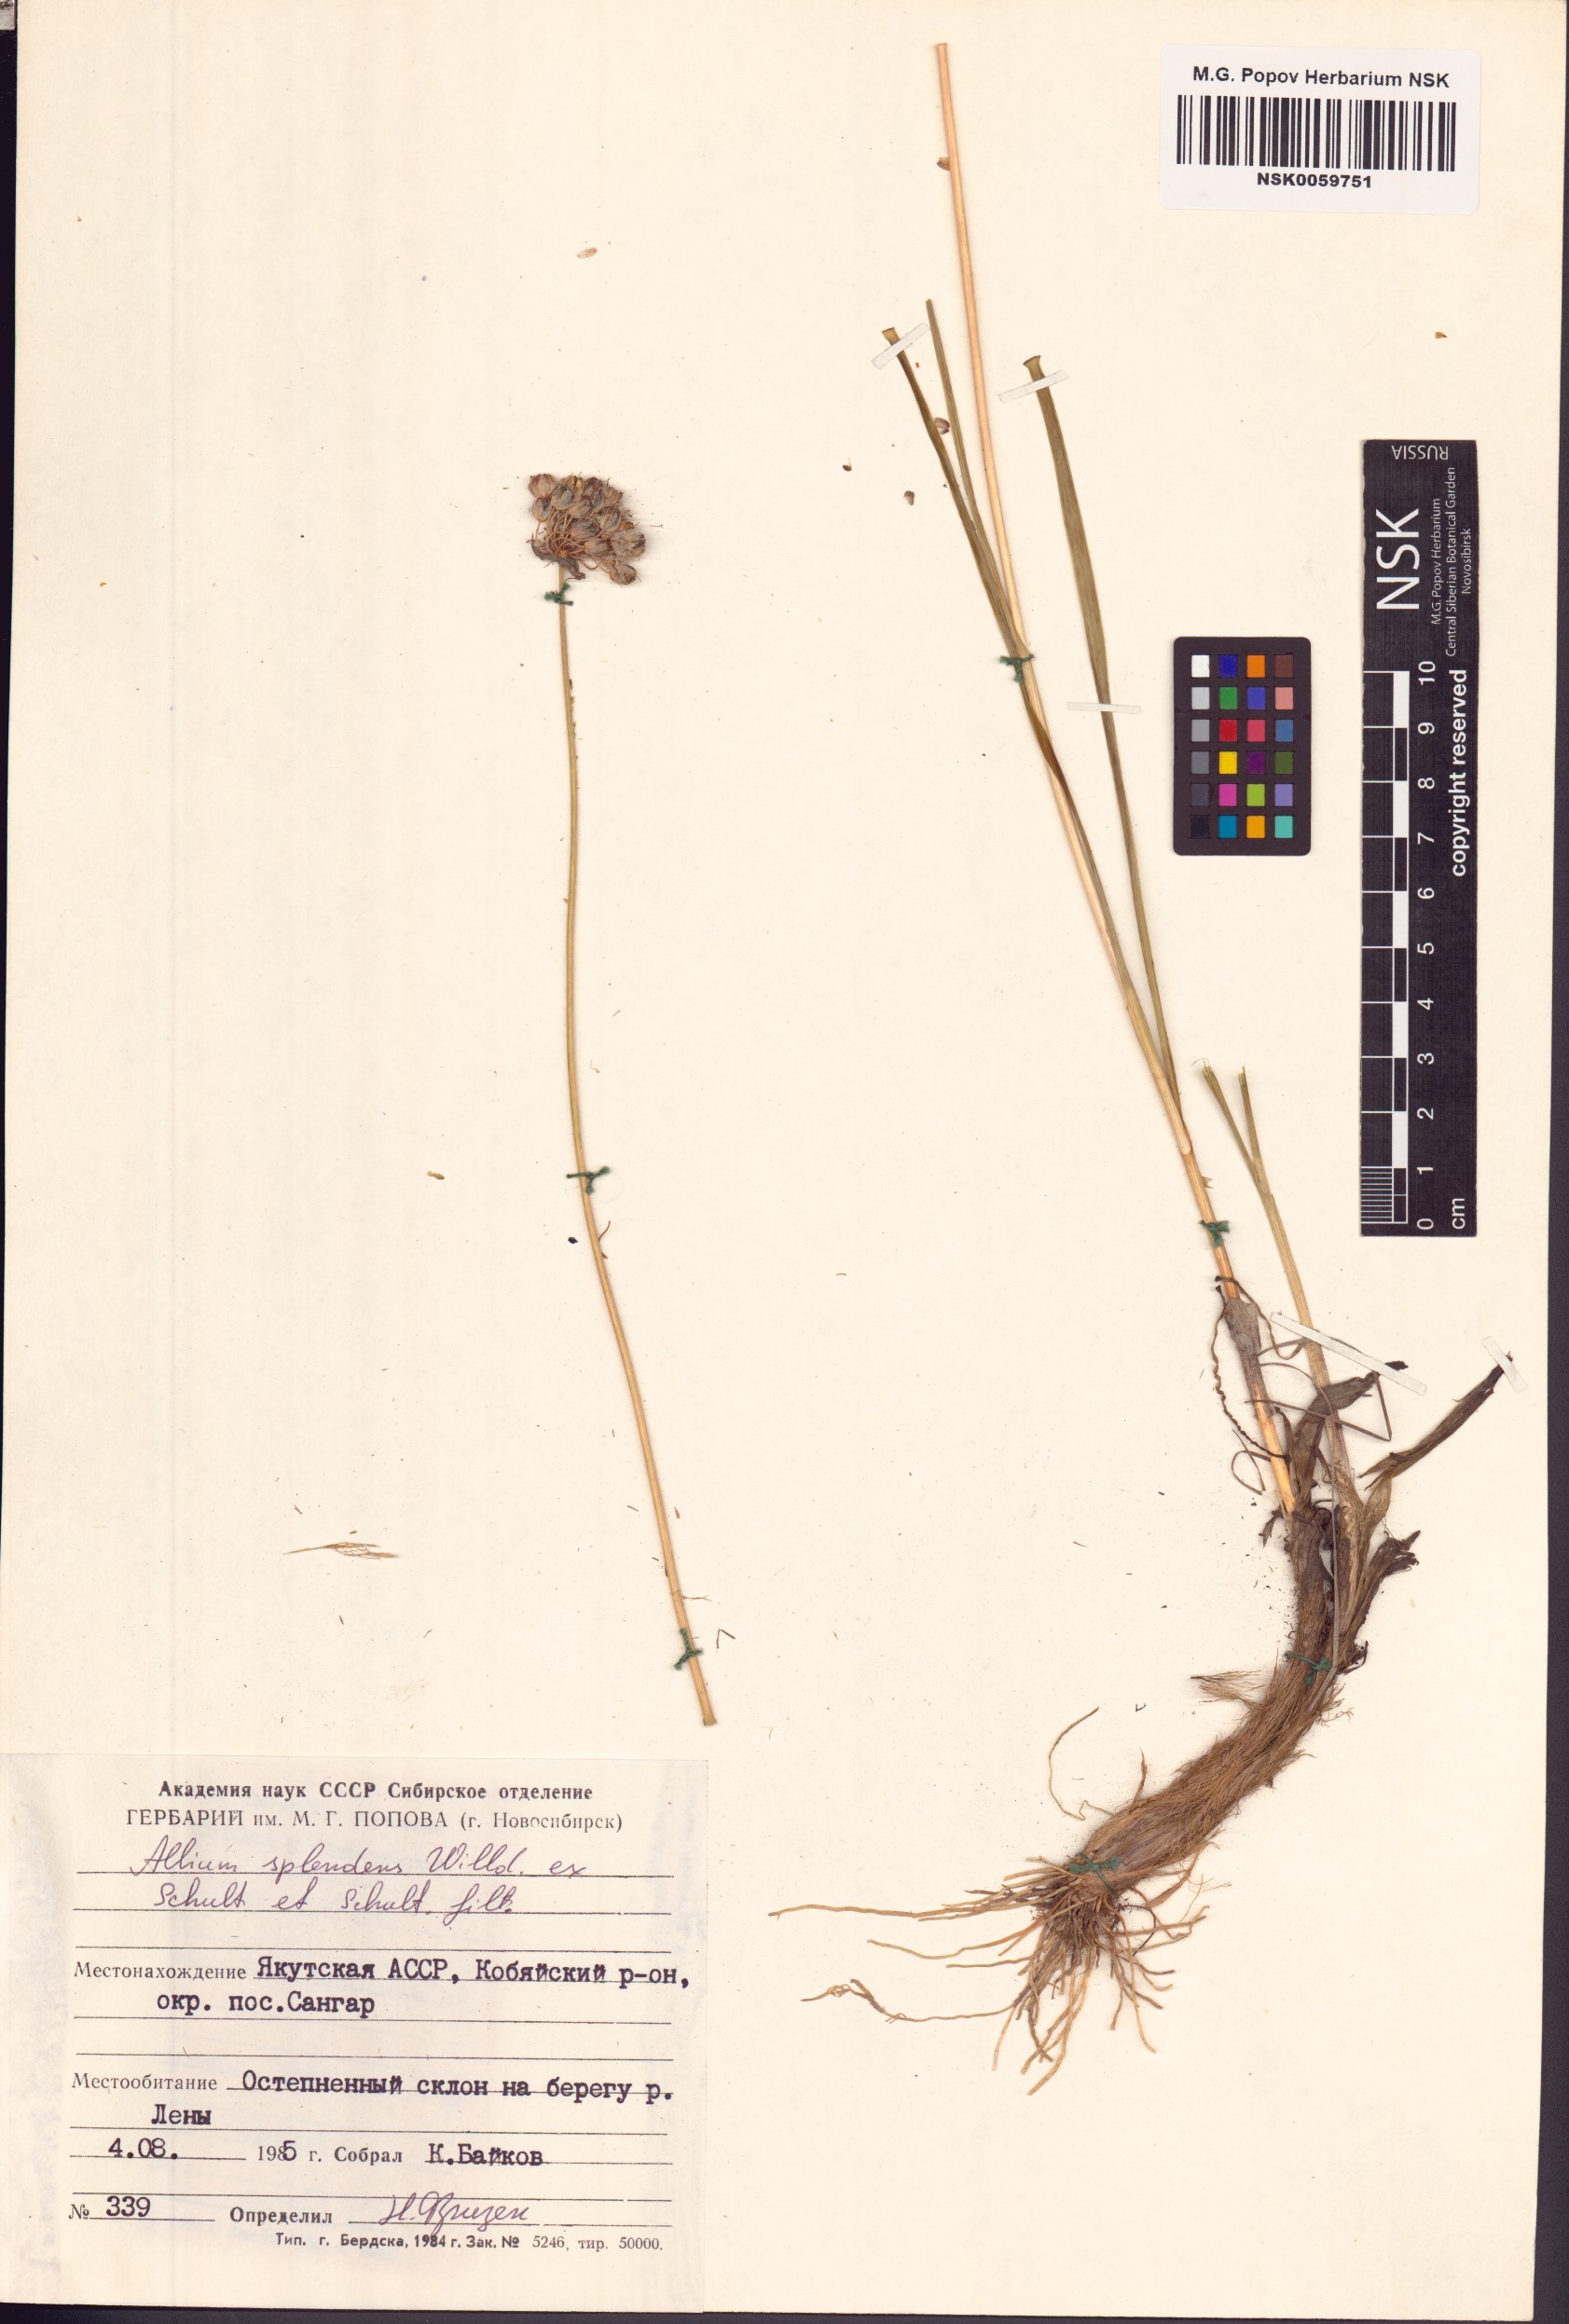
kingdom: Plantae
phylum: Tracheophyta
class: Liliopsida
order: Asparagales
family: Amaryllidaceae
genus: Allium
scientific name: Allium splendens
